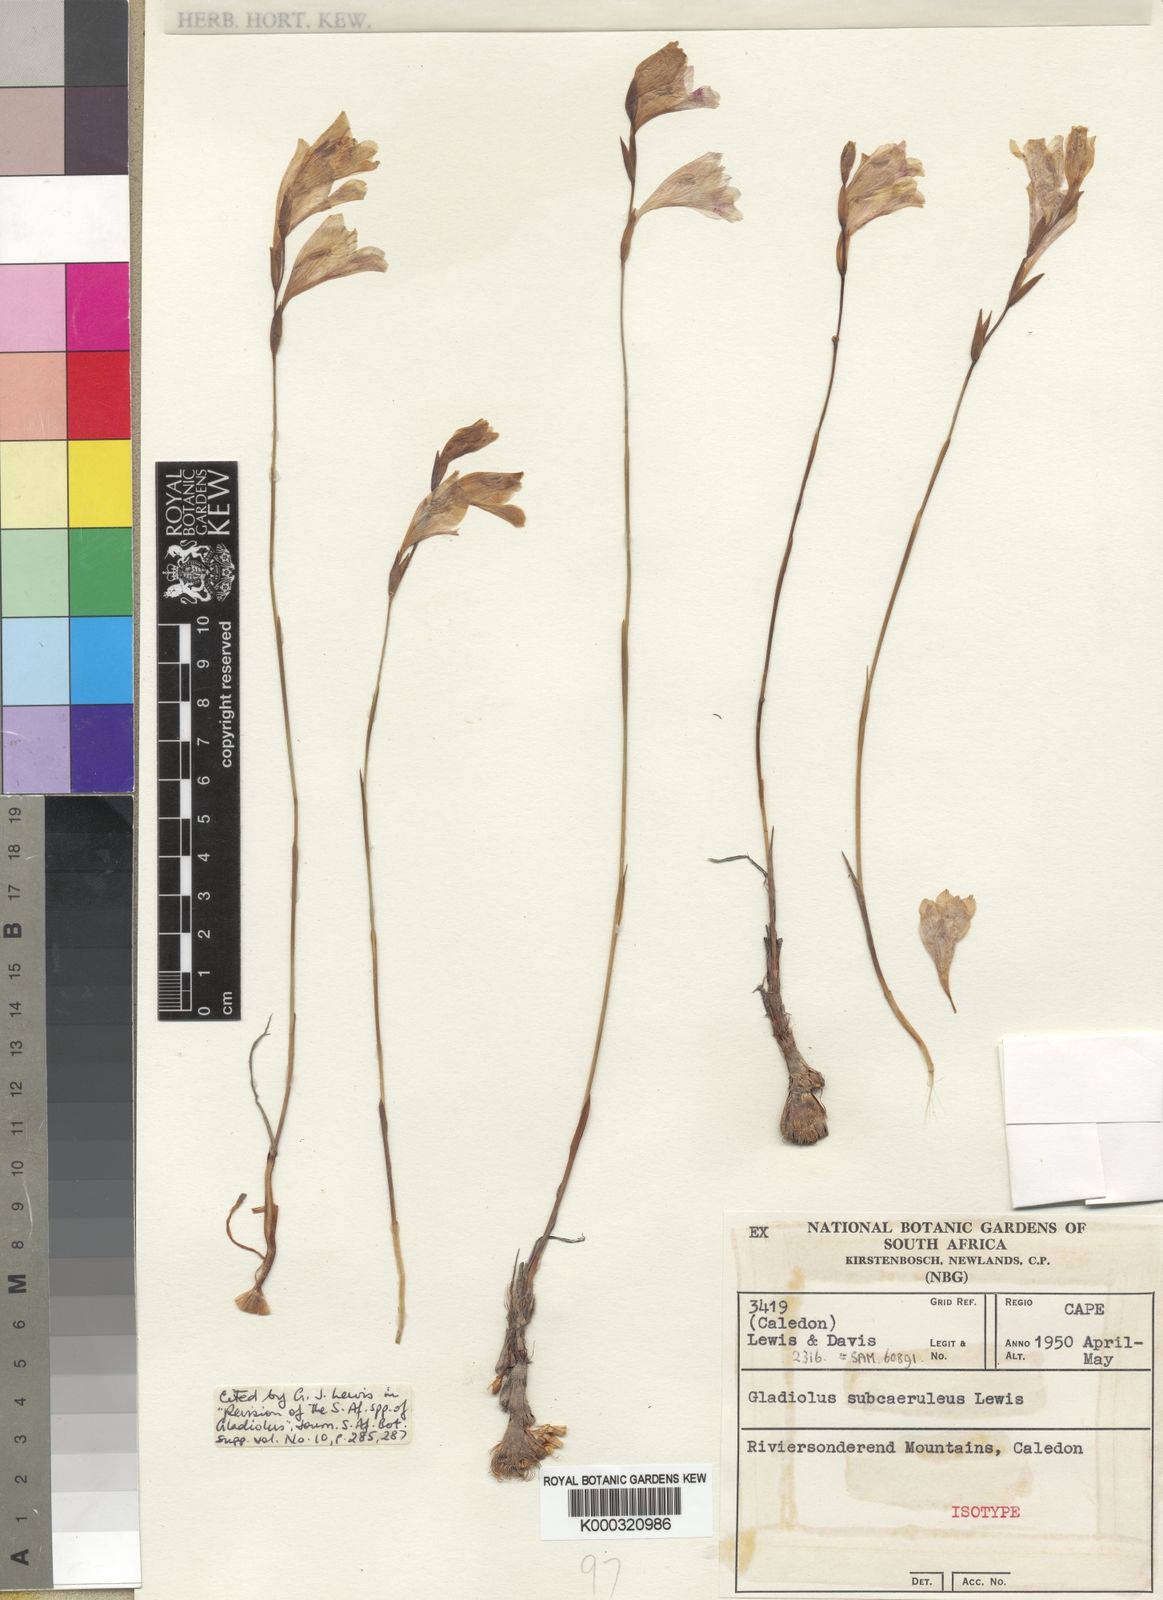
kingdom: Plantae
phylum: Tracheophyta
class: Liliopsida
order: Asparagales
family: Iridaceae
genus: Gladiolus
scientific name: Gladiolus subcaeruleus
